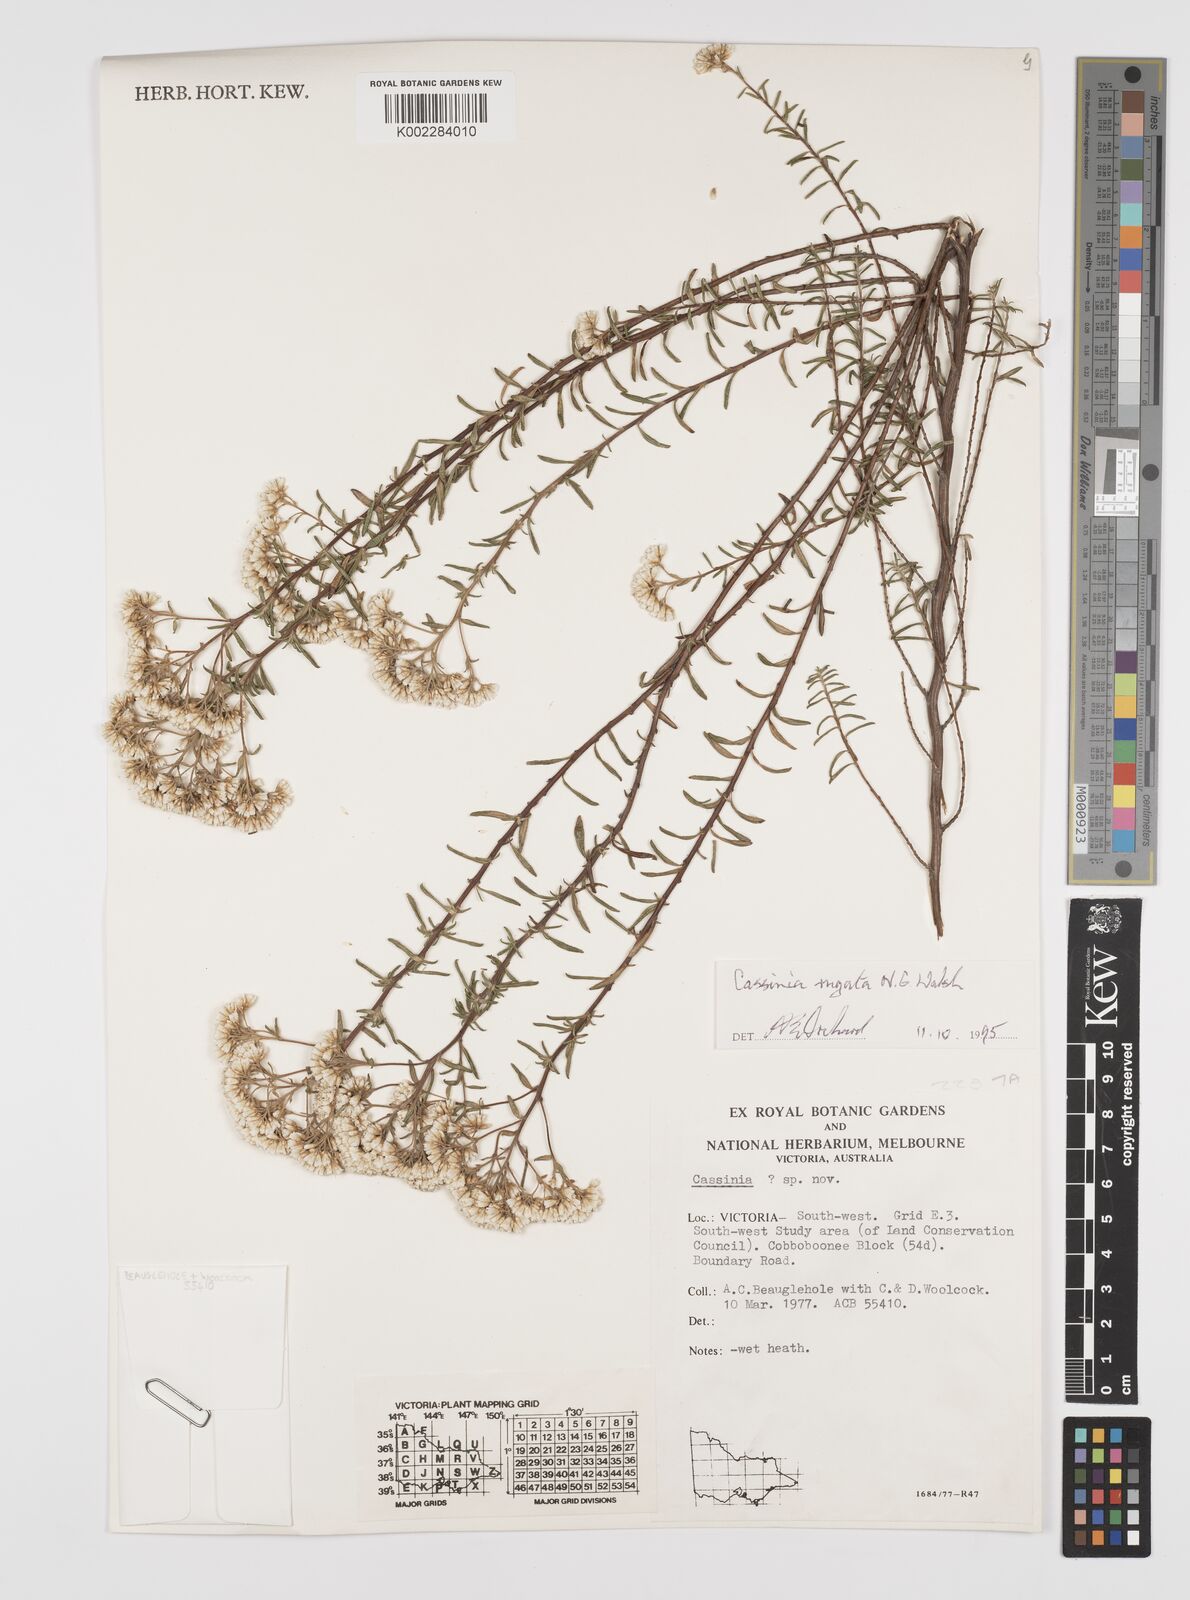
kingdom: Plantae
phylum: Tracheophyta
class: Magnoliopsida
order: Asterales
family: Asteraceae
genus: Cassinia
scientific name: Cassinia rugata
